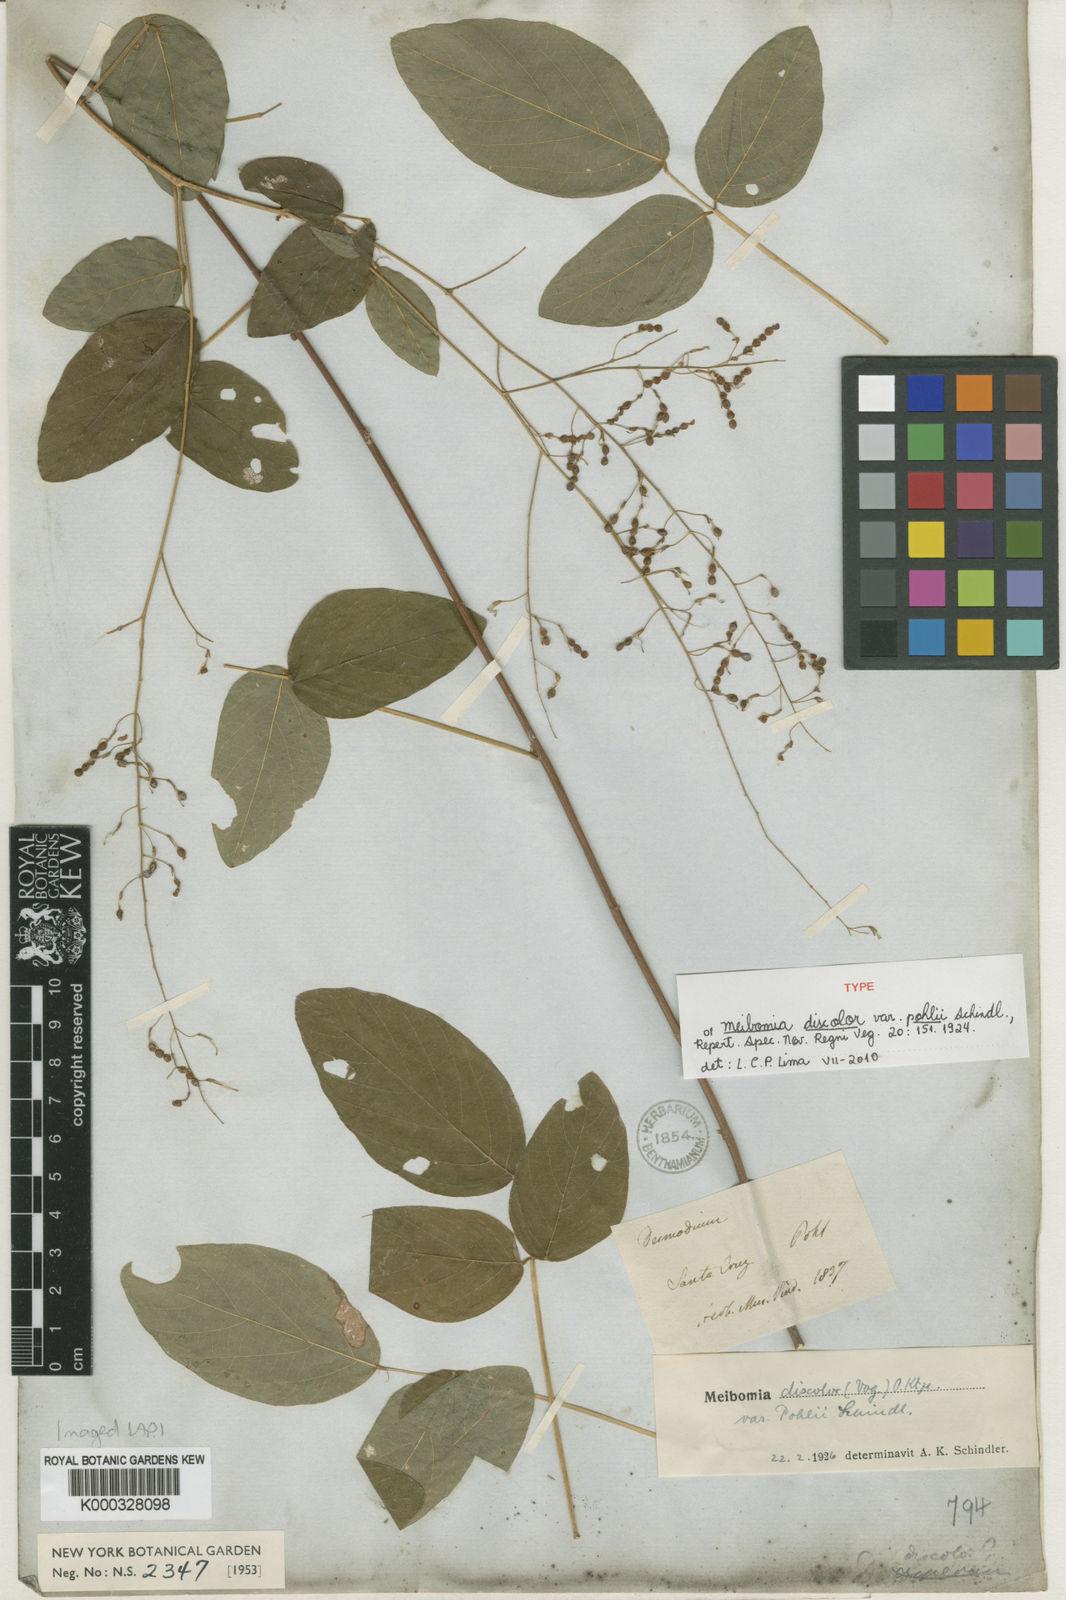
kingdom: Plantae
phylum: Tracheophyta
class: Magnoliopsida
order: Fabales
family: Fabaceae
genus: Desmodium
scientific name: Desmodium subsecundum
